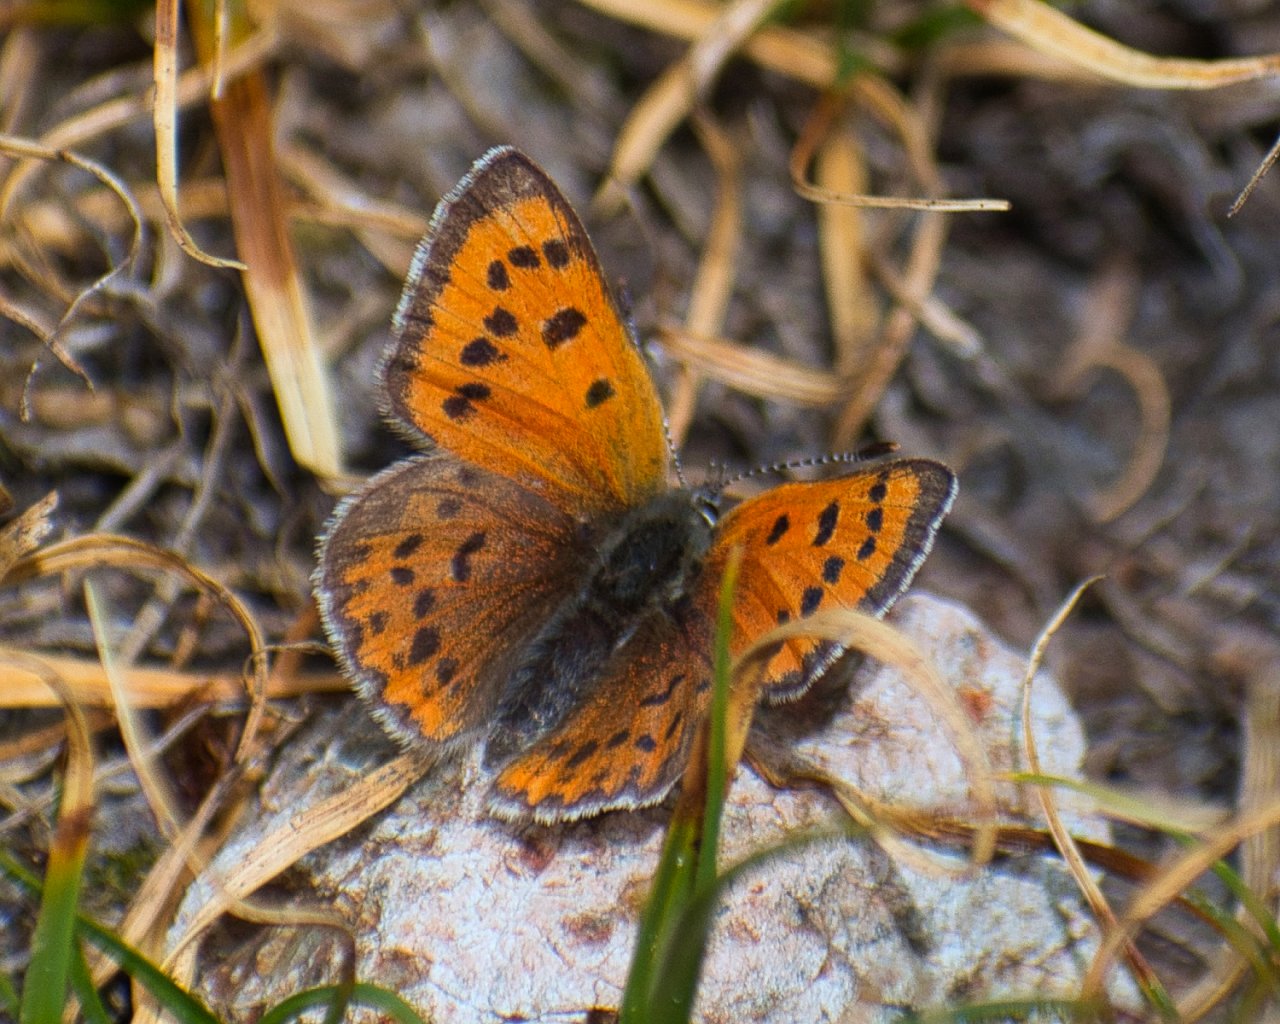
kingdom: Animalia
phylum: Arthropoda
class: Insecta
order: Lepidoptera
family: Lycaenidae
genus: Lycaena
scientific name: Lycaena cupreus
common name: Lustrous Copper
